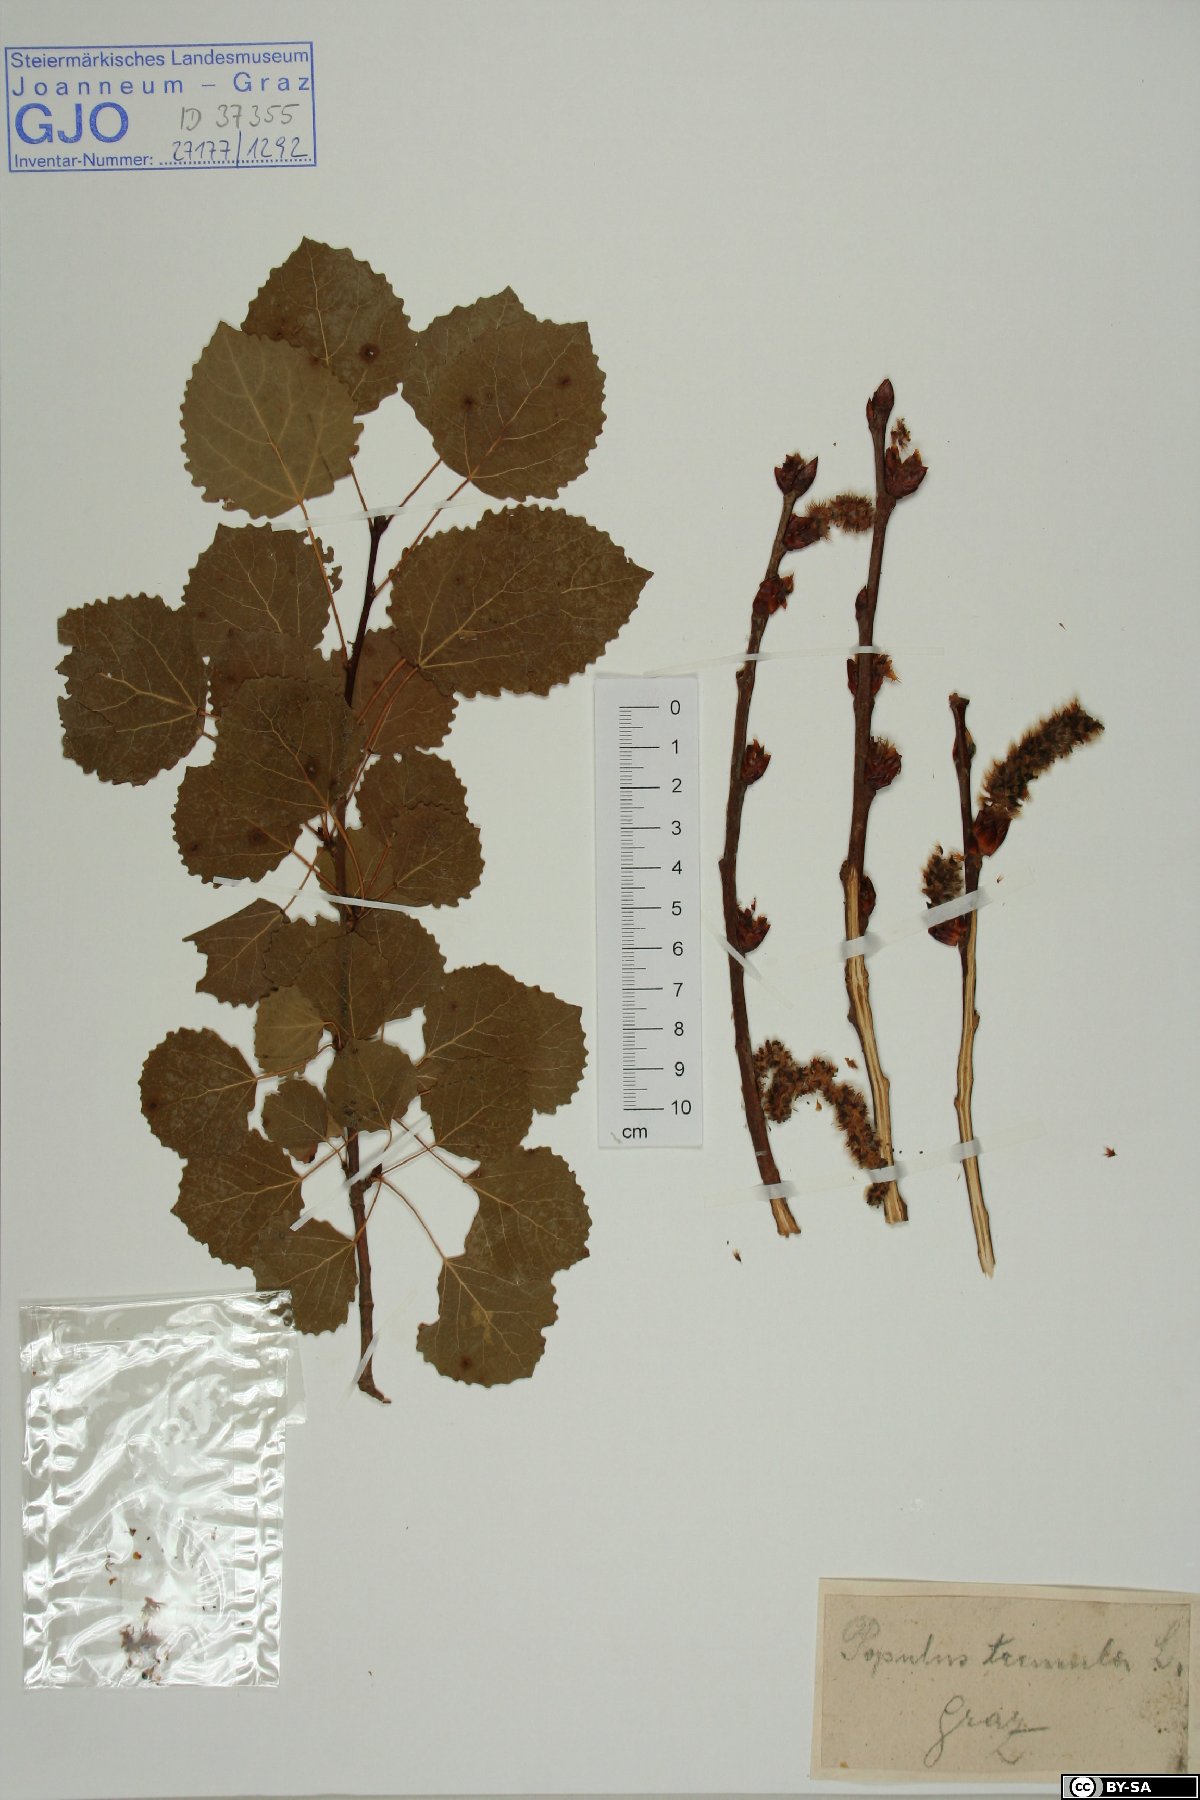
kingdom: Plantae
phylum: Tracheophyta
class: Magnoliopsida
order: Malpighiales
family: Salicaceae
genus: Populus
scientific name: Populus tremula
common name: European aspen
